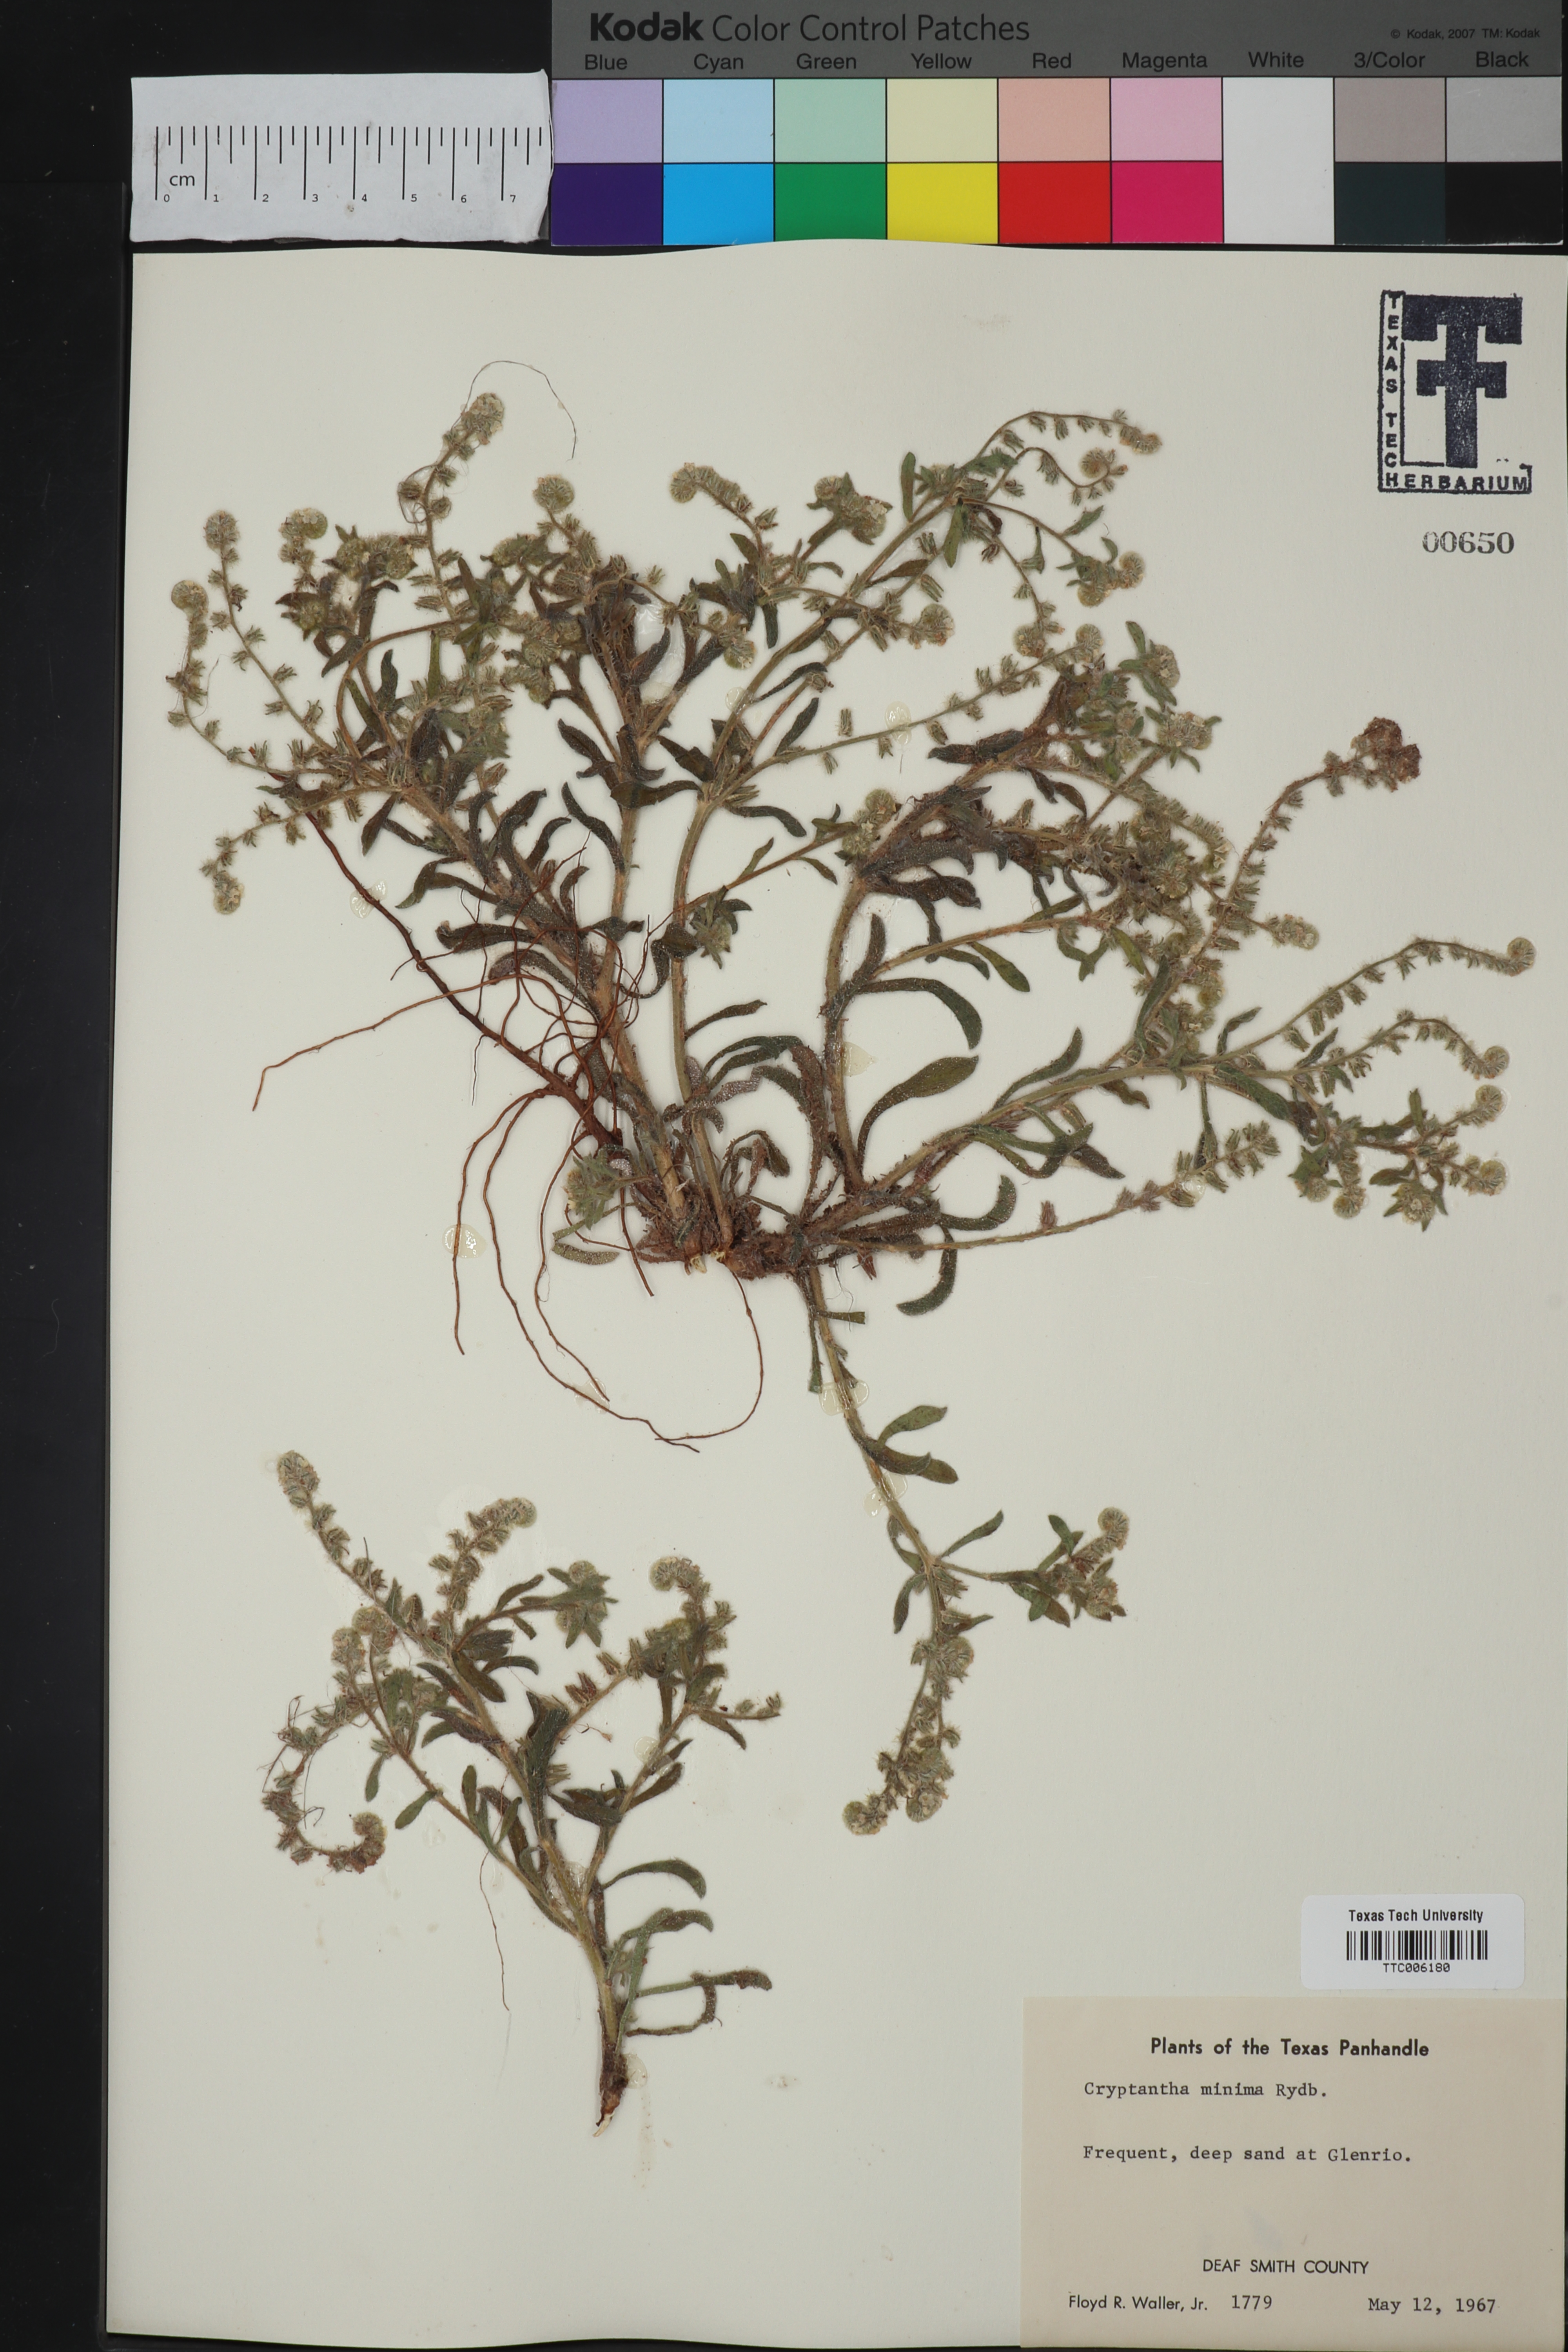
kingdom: Plantae
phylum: Tracheophyta
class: Magnoliopsida
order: Boraginales
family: Boraginaceae
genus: Cryptantha
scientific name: Cryptantha minima
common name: Little cat's-eye
